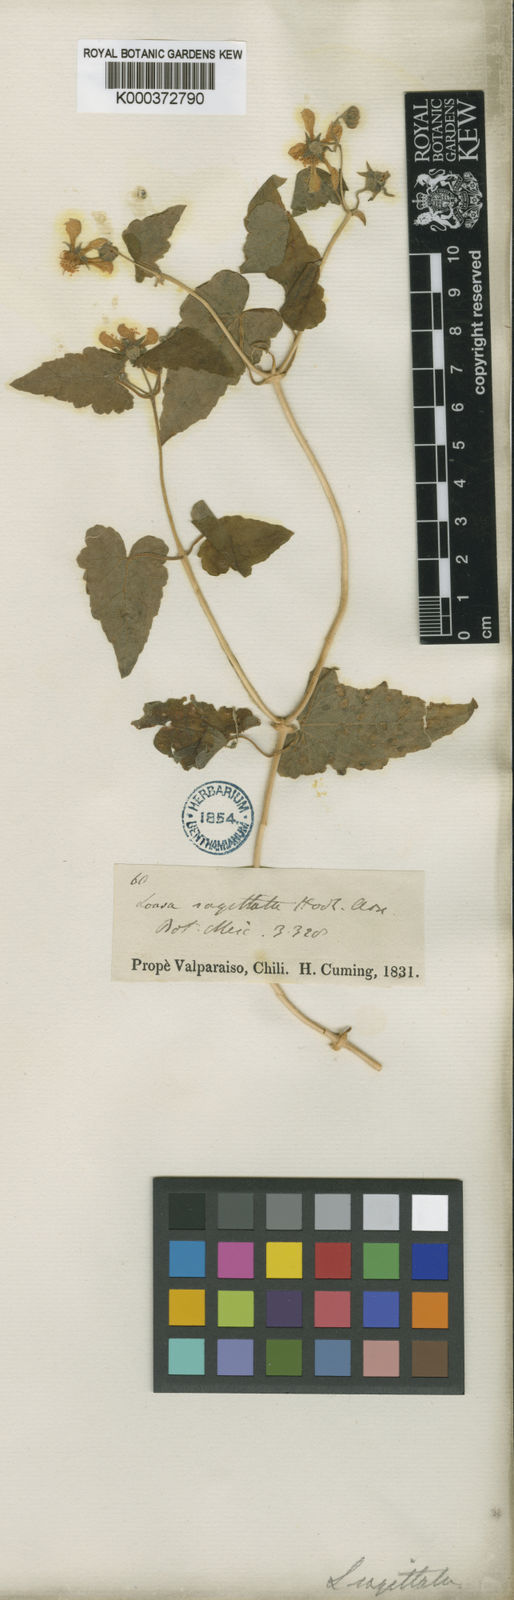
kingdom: Plantae
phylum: Tracheophyta
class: Magnoliopsida
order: Cornales
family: Loasaceae
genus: Grausa
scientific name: Grausa sagittata
